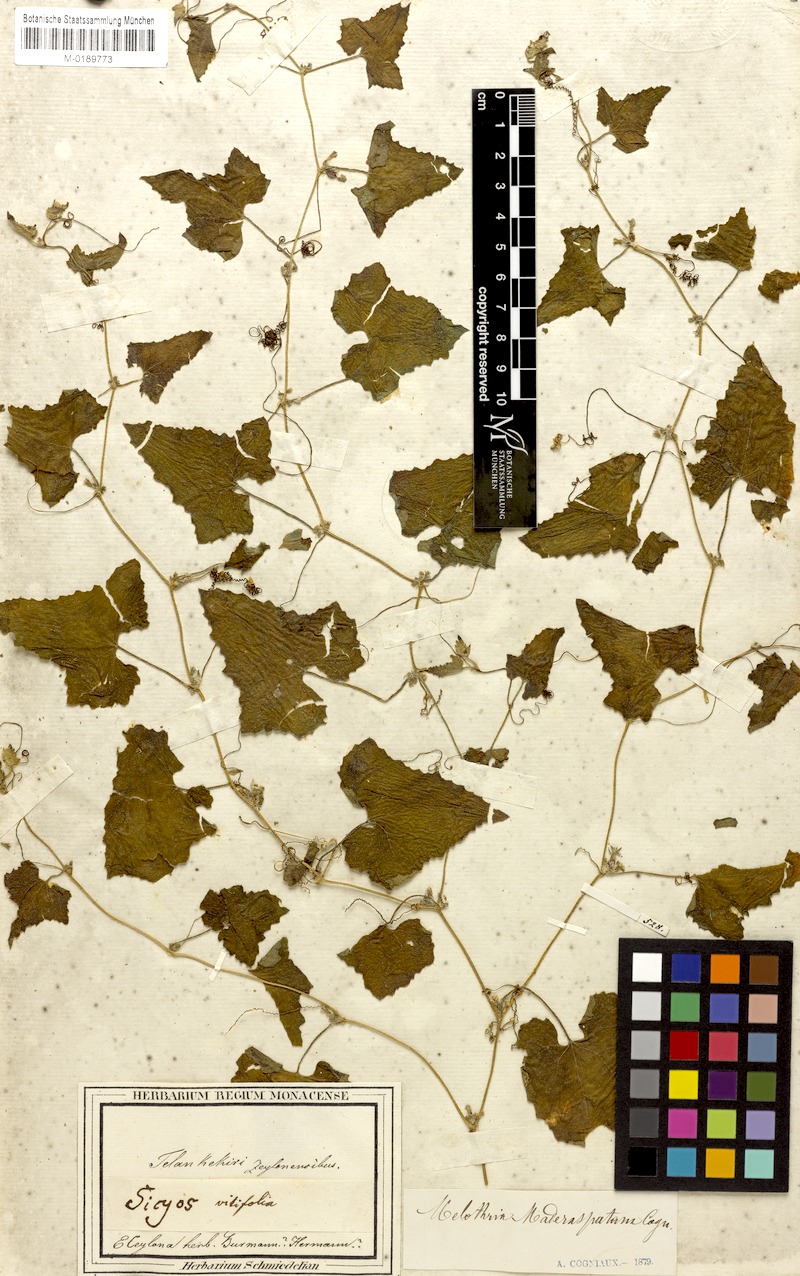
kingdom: Plantae
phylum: Tracheophyta
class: Magnoliopsida
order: Cucurbitales
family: Cucurbitaceae
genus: Cucumis
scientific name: Cucumis maderaspatanus
